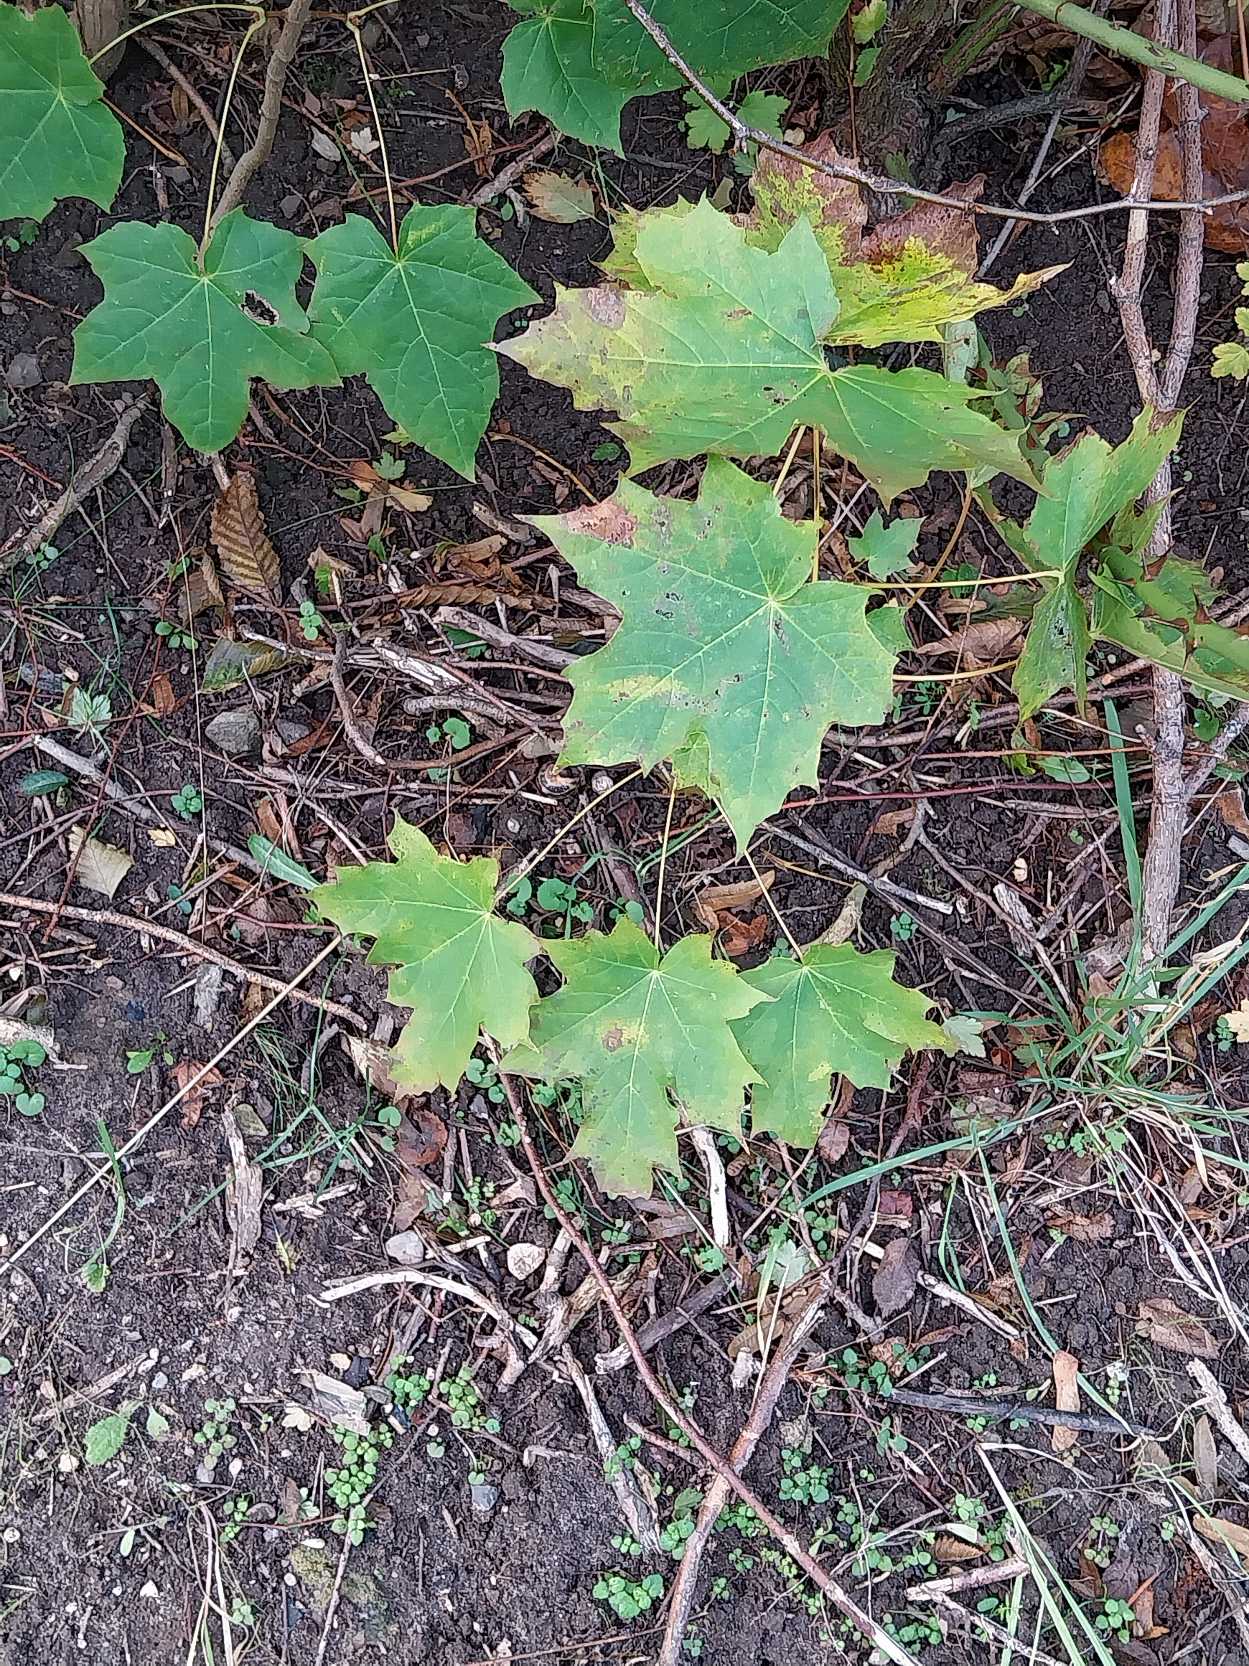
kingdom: Plantae
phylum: Tracheophyta
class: Magnoliopsida
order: Sapindales
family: Sapindaceae
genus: Acer
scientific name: Acer platanoides
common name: Spids-løn
